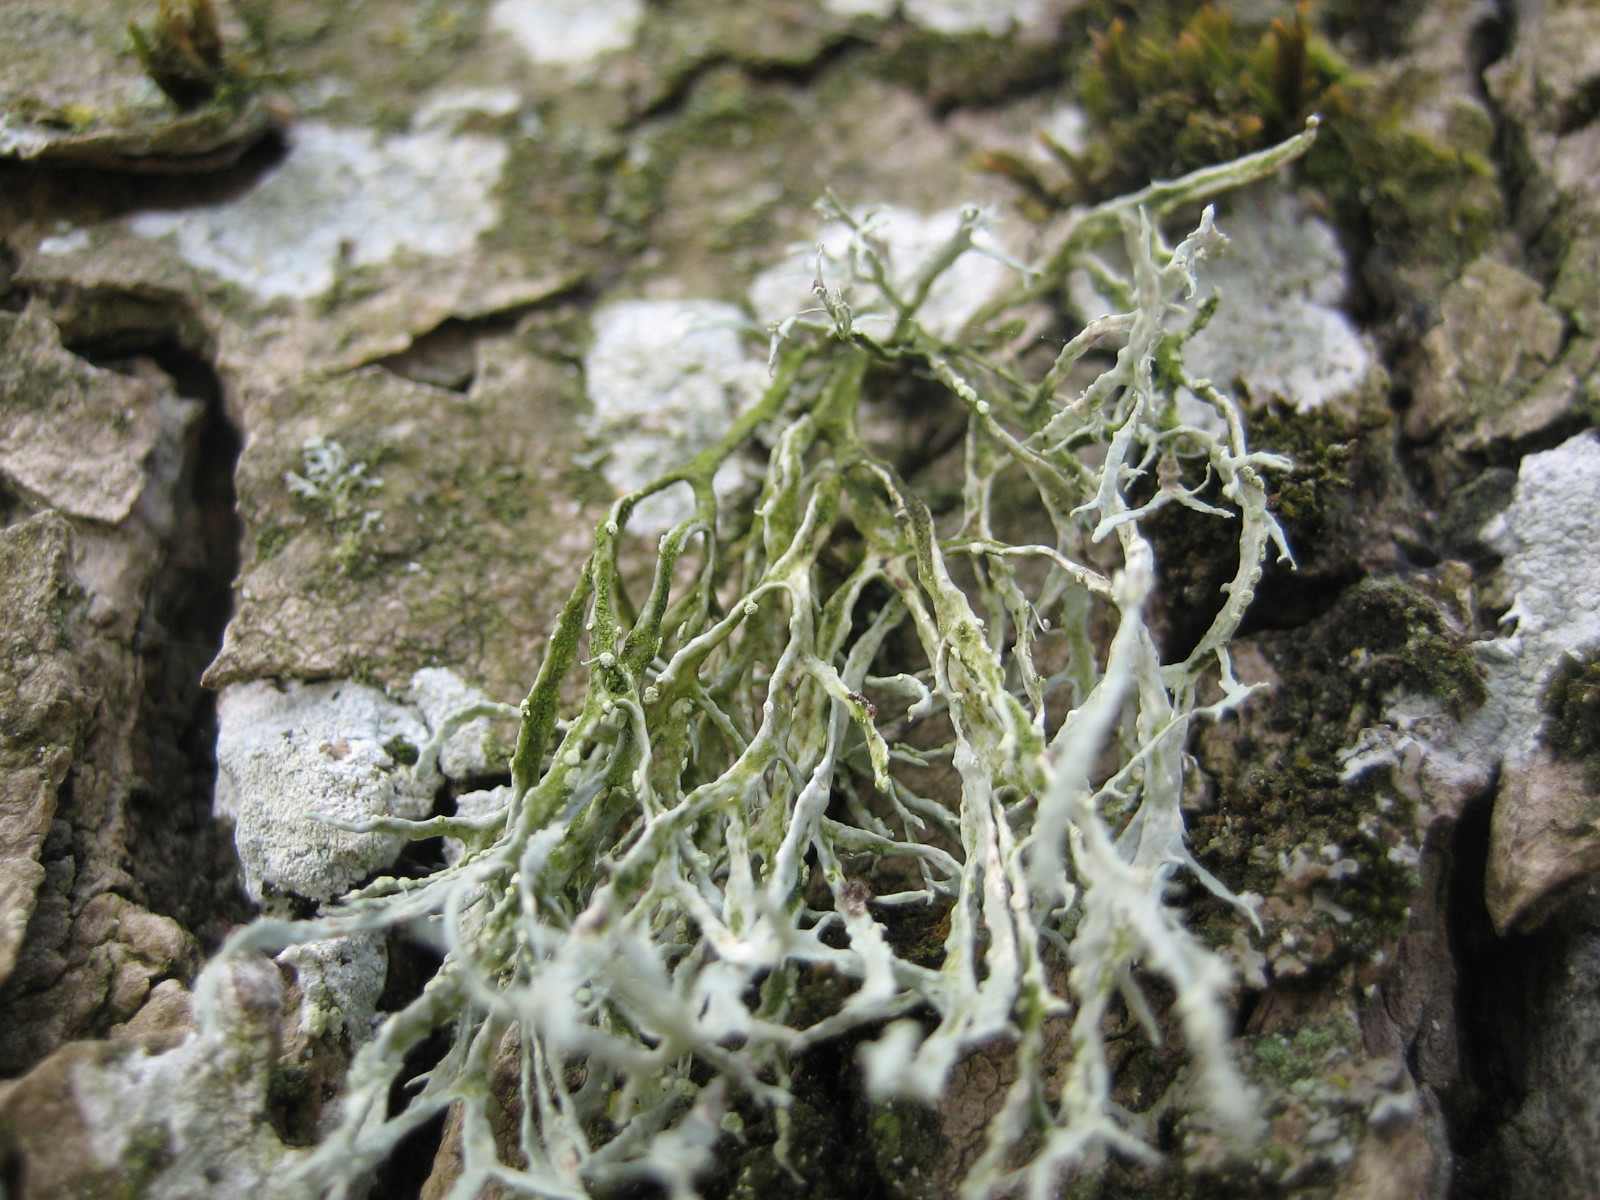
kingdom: Fungi
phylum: Ascomycota
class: Lecanoromycetes
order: Lecanorales
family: Ramalinaceae
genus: Ramalina
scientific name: Ramalina farinacea
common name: melet grenlav
